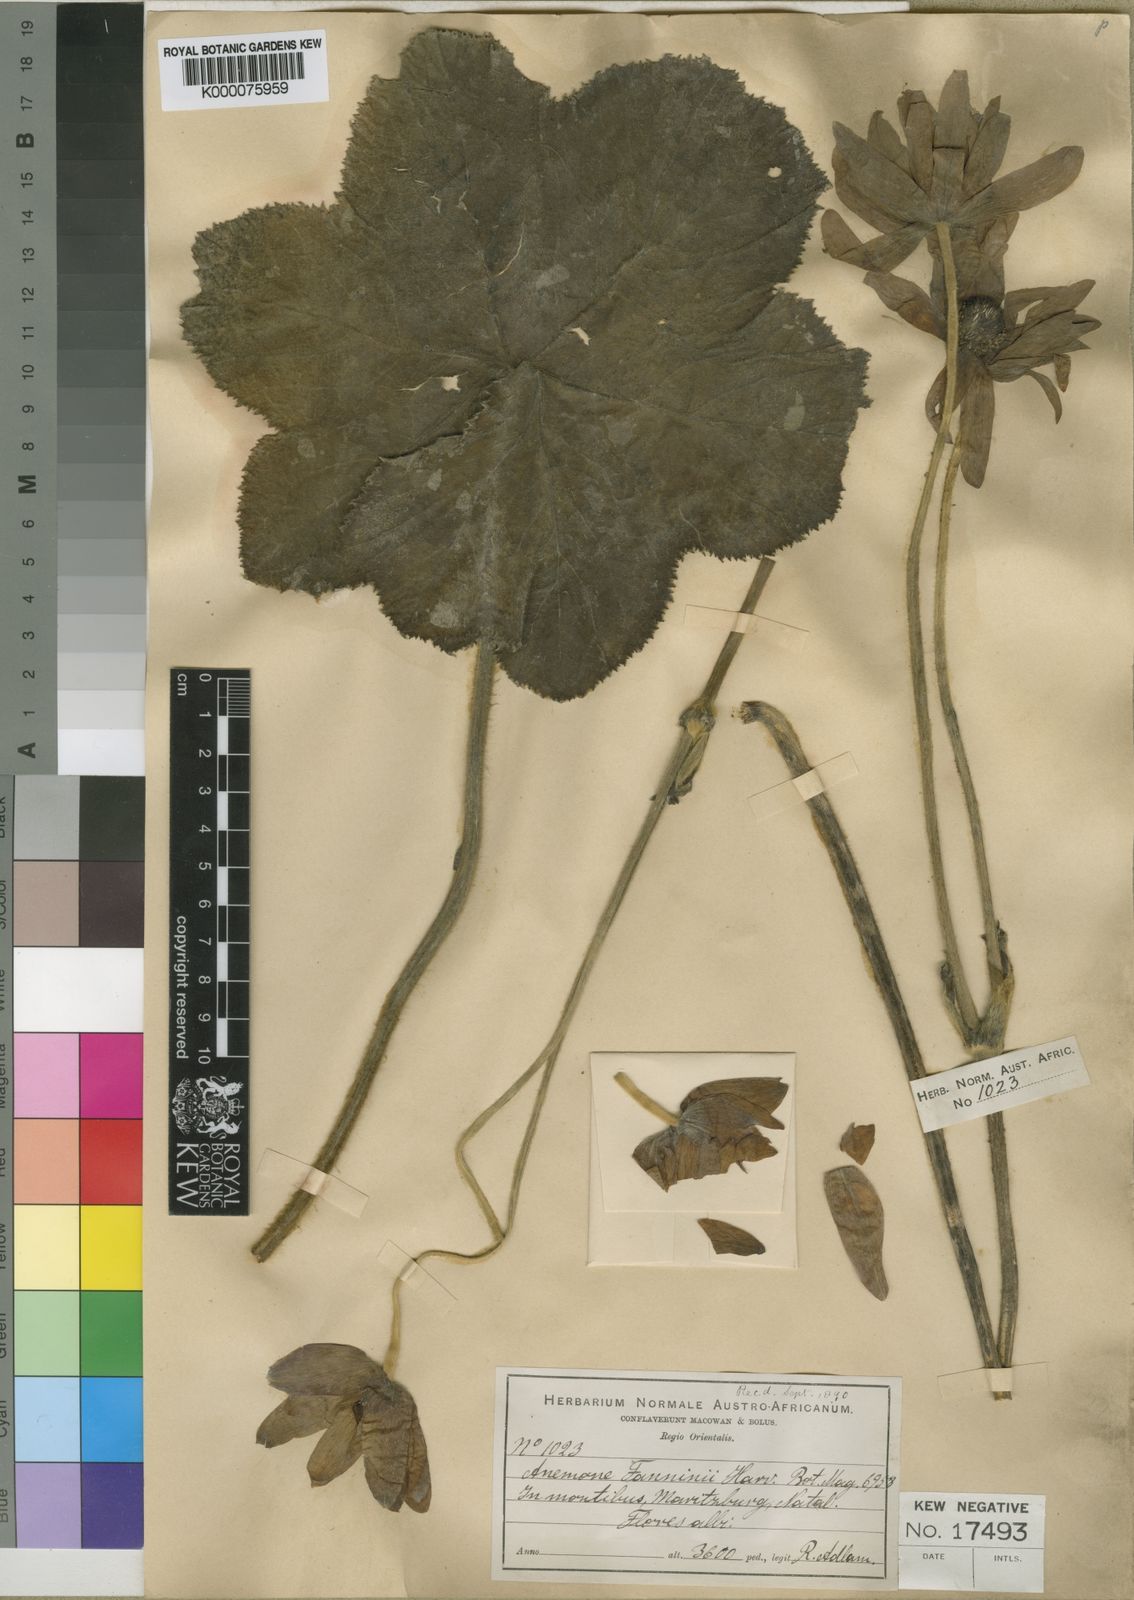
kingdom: Plantae
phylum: Tracheophyta
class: Magnoliopsida
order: Ranunculales
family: Ranunculaceae
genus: Knowltonia
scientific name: Knowltonia fanninii
